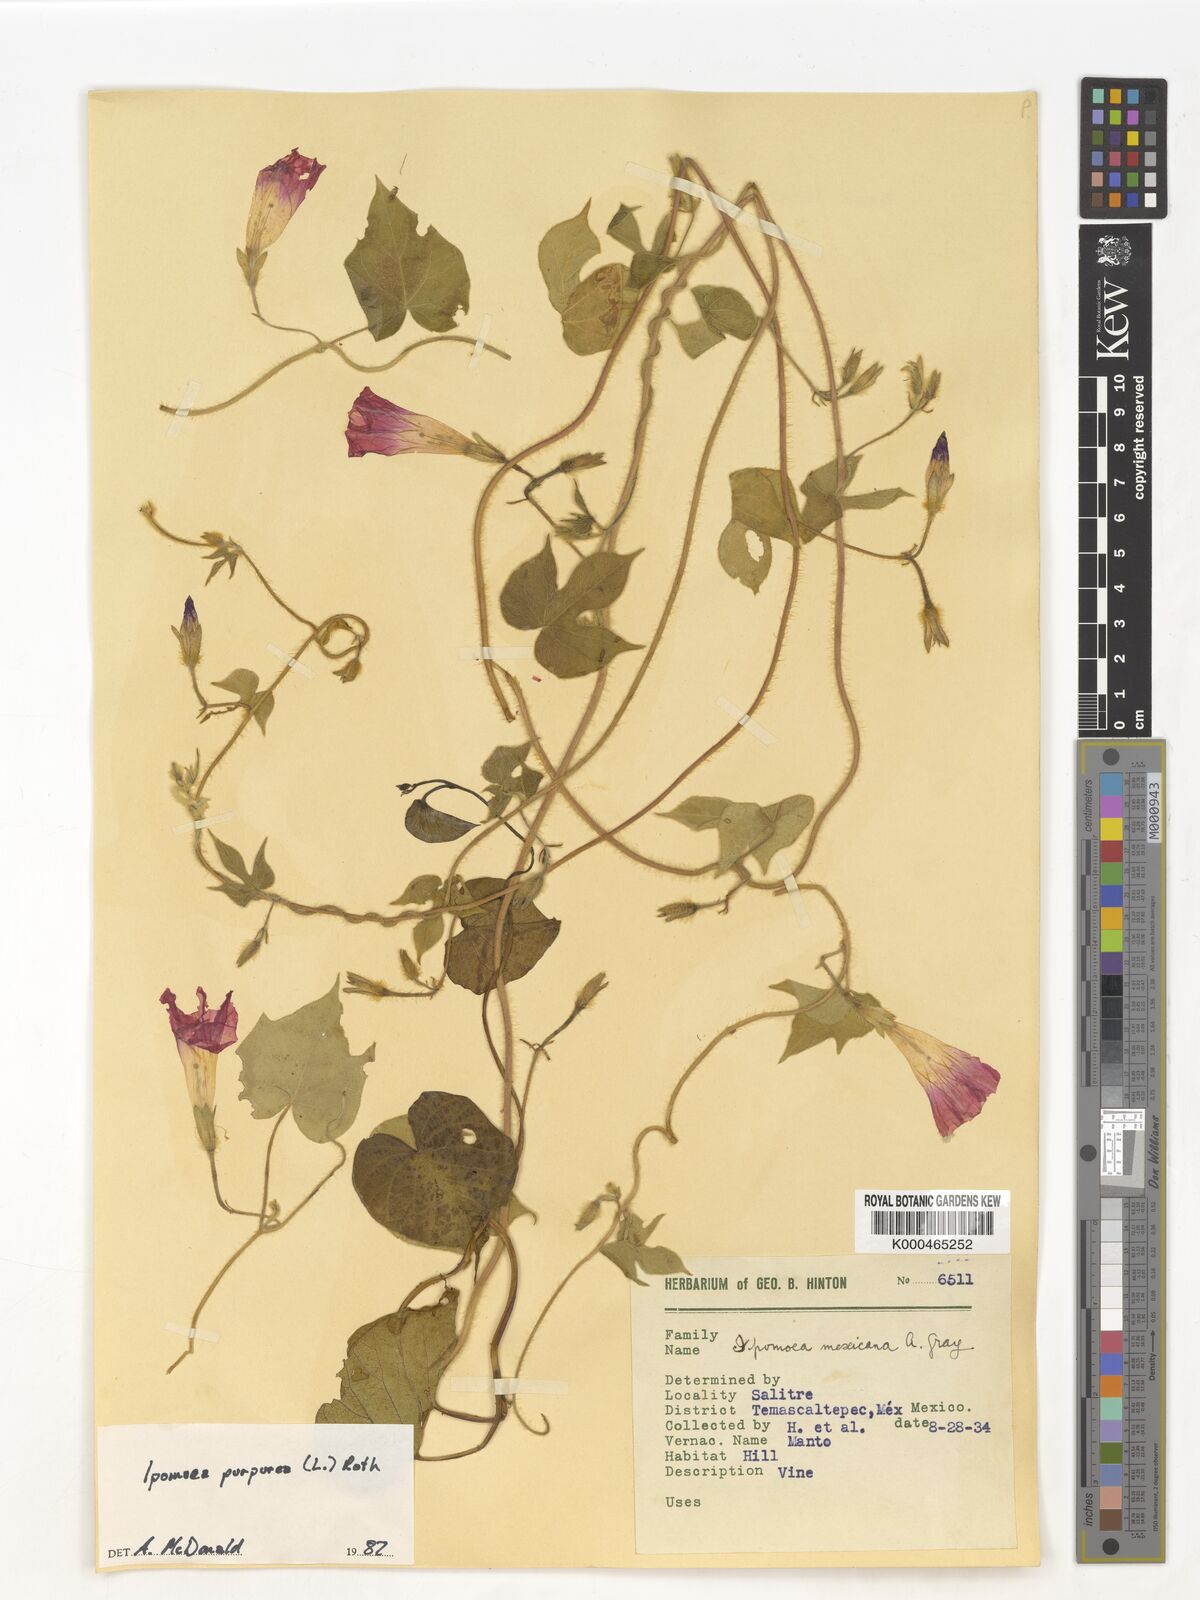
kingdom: Plantae
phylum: Tracheophyta
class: Magnoliopsida
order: Solanales
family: Convolvulaceae
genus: Ipomoea
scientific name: Ipomoea purpurea
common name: Common morning-glory
